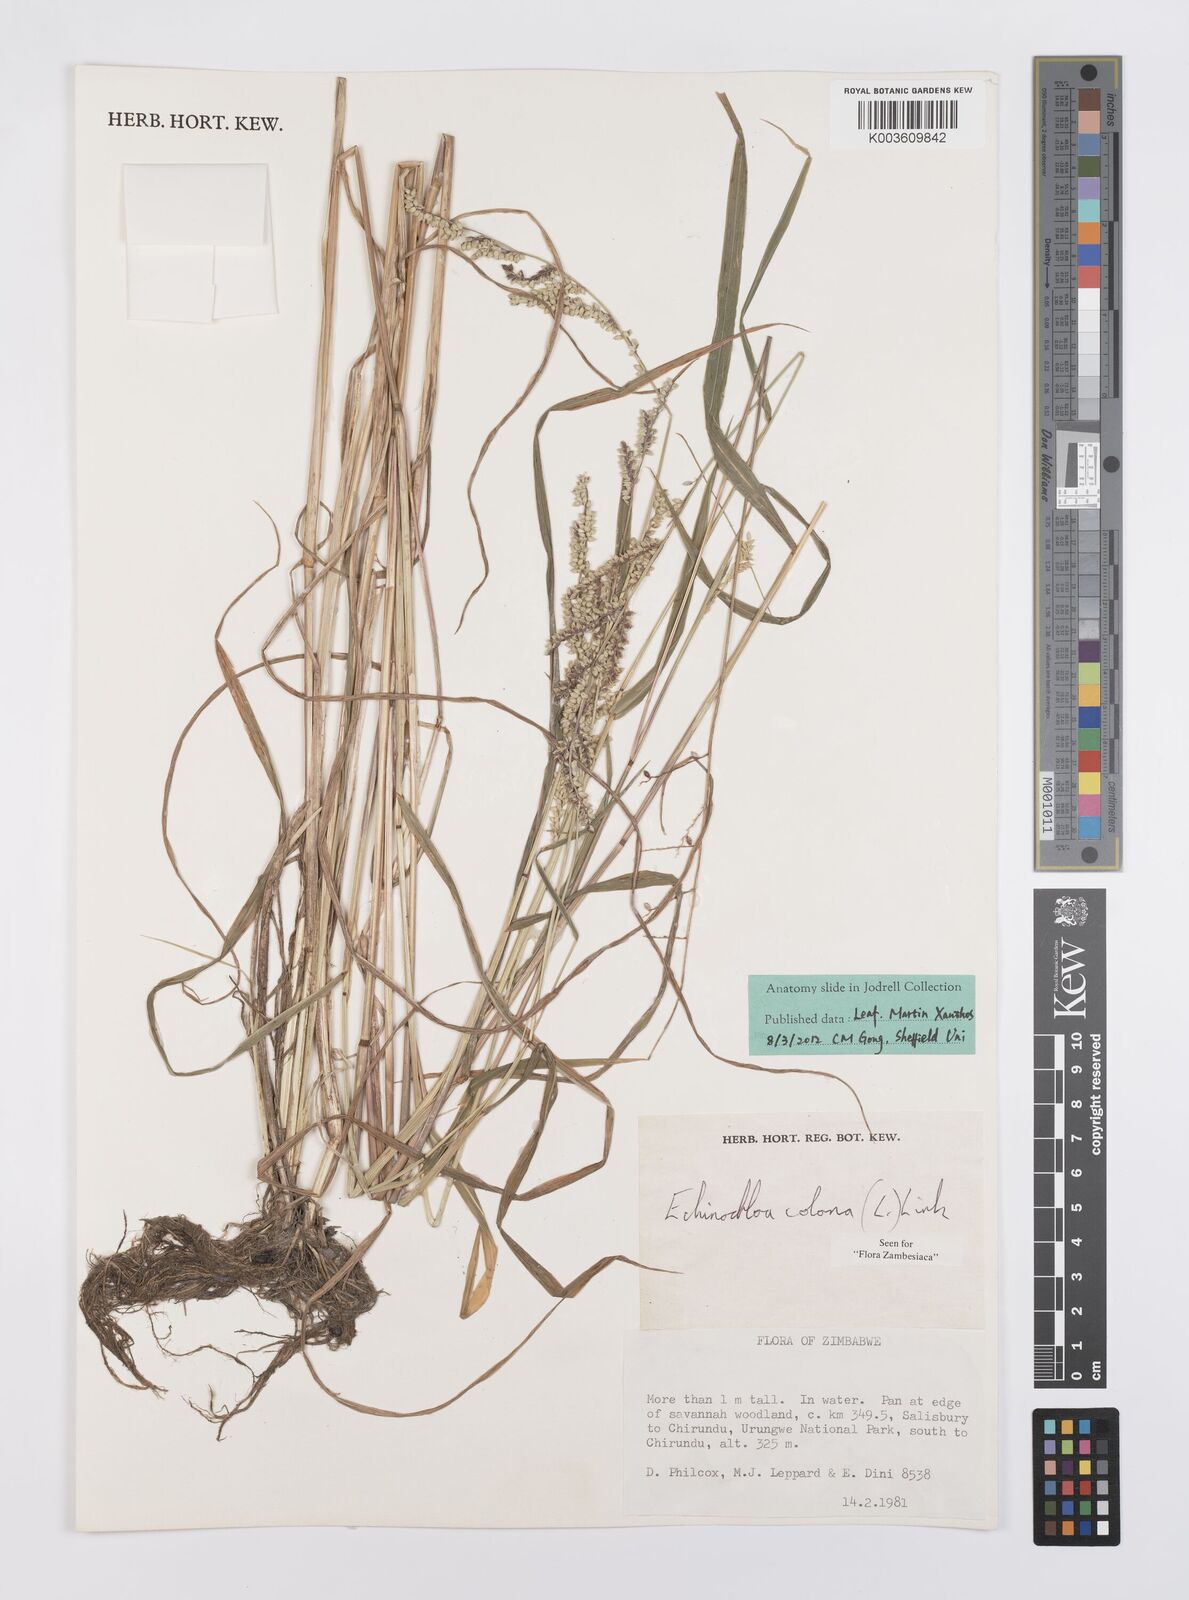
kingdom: Plantae
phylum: Tracheophyta
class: Liliopsida
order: Poales
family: Poaceae
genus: Echinochloa
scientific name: Echinochloa colonum
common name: Jungle rice
